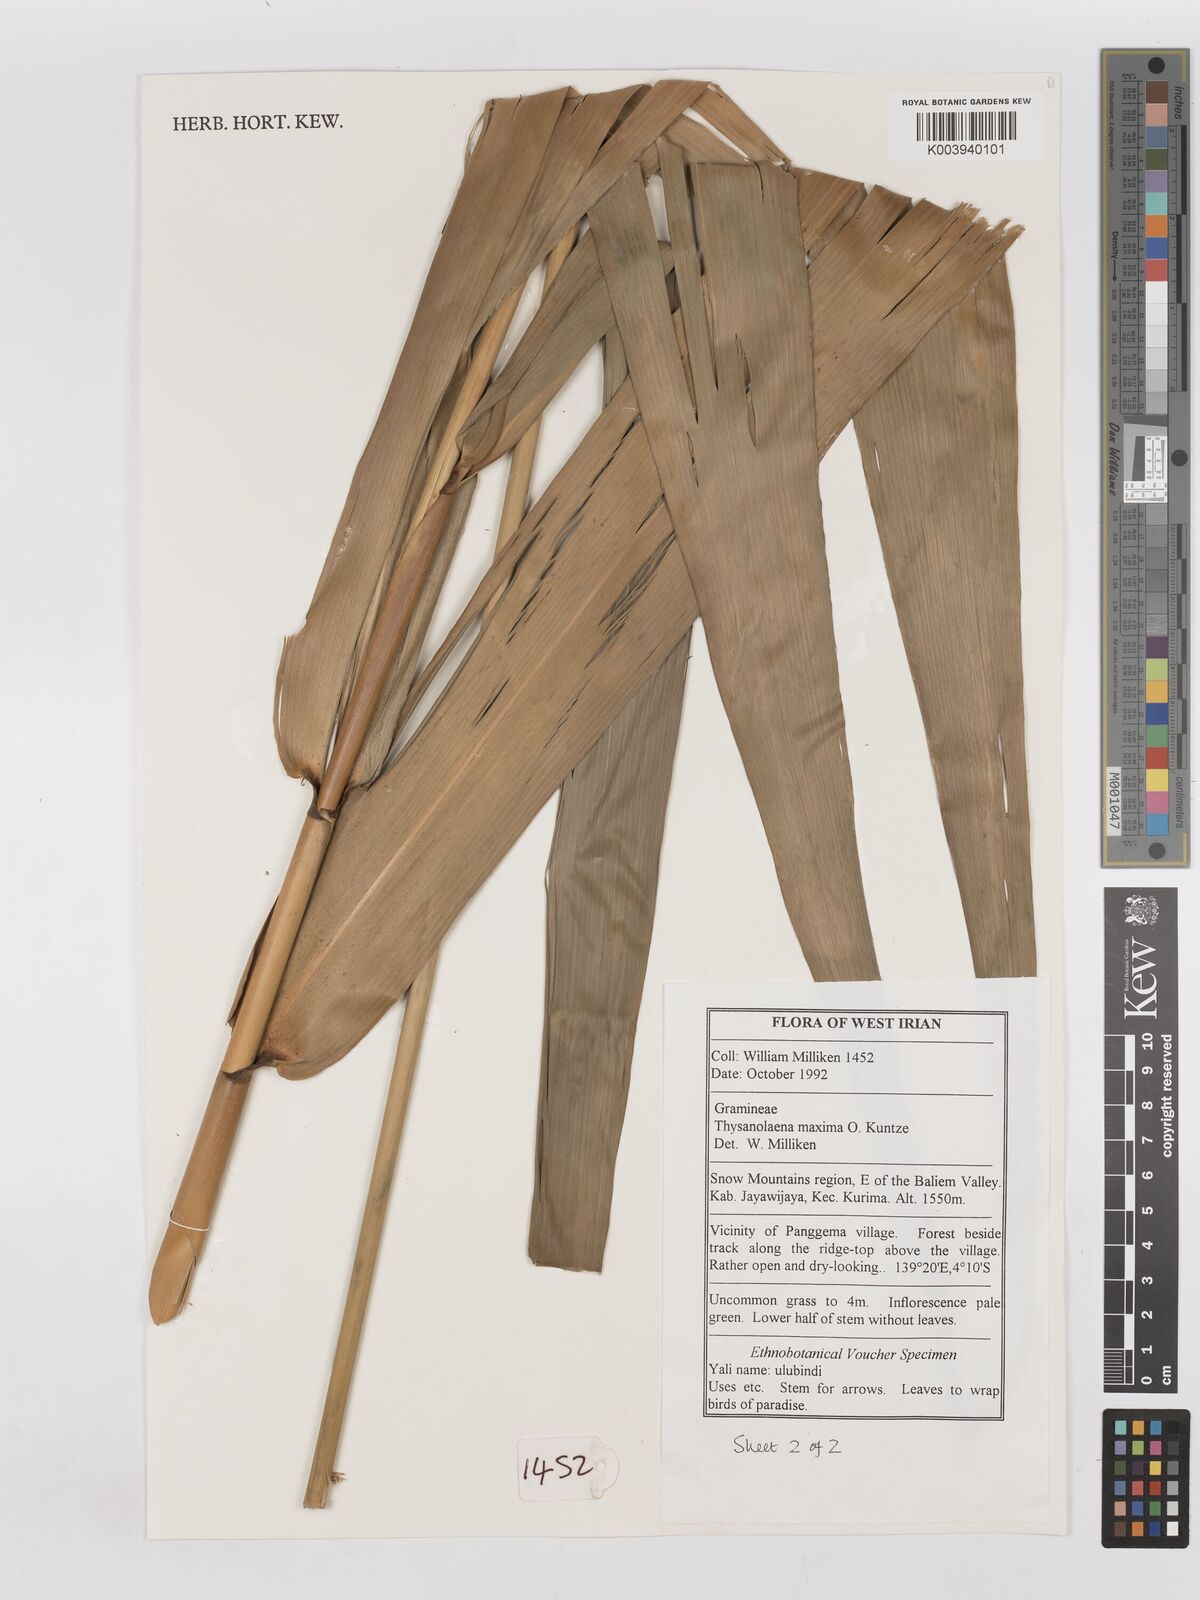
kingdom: Plantae
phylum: Tracheophyta
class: Liliopsida
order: Poales
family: Poaceae
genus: Thysanolaena
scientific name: Thysanolaena latifolia
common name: Tiger grass
